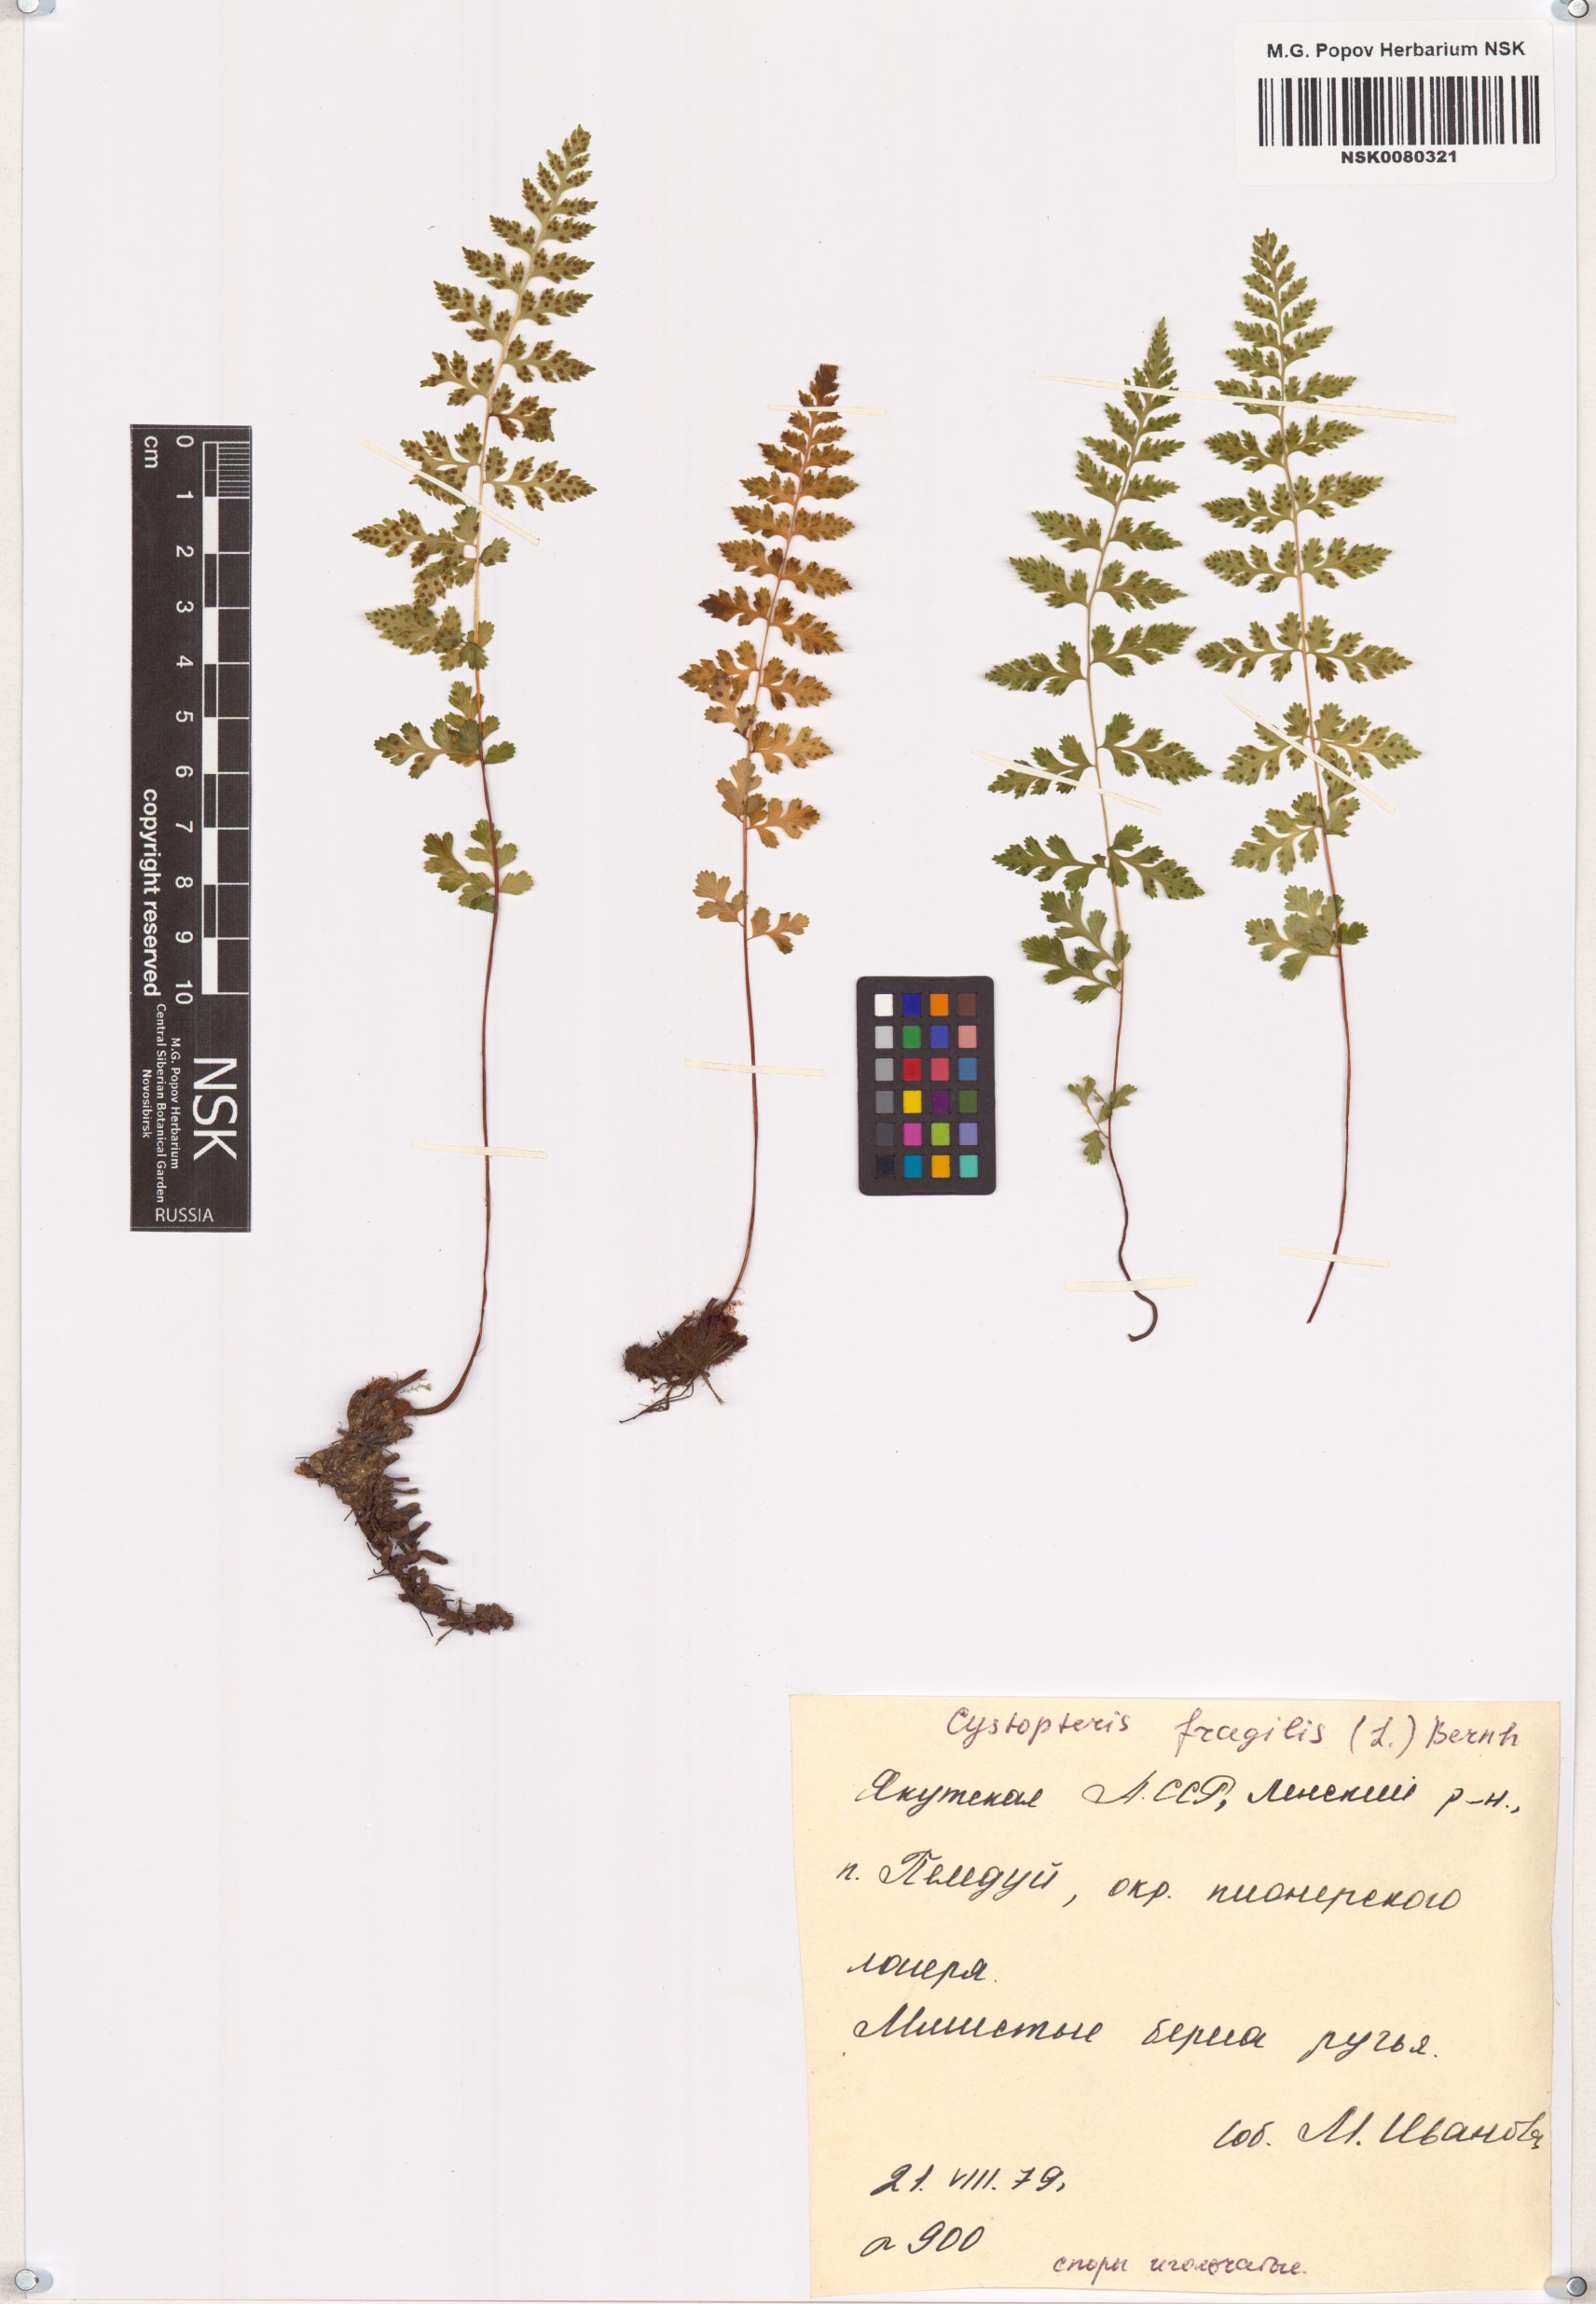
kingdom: Plantae
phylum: Tracheophyta
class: Polypodiopsida
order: Polypodiales
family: Cystopteridaceae
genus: Cystopteris
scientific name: Cystopteris fragilis
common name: Brittle bladder fern
